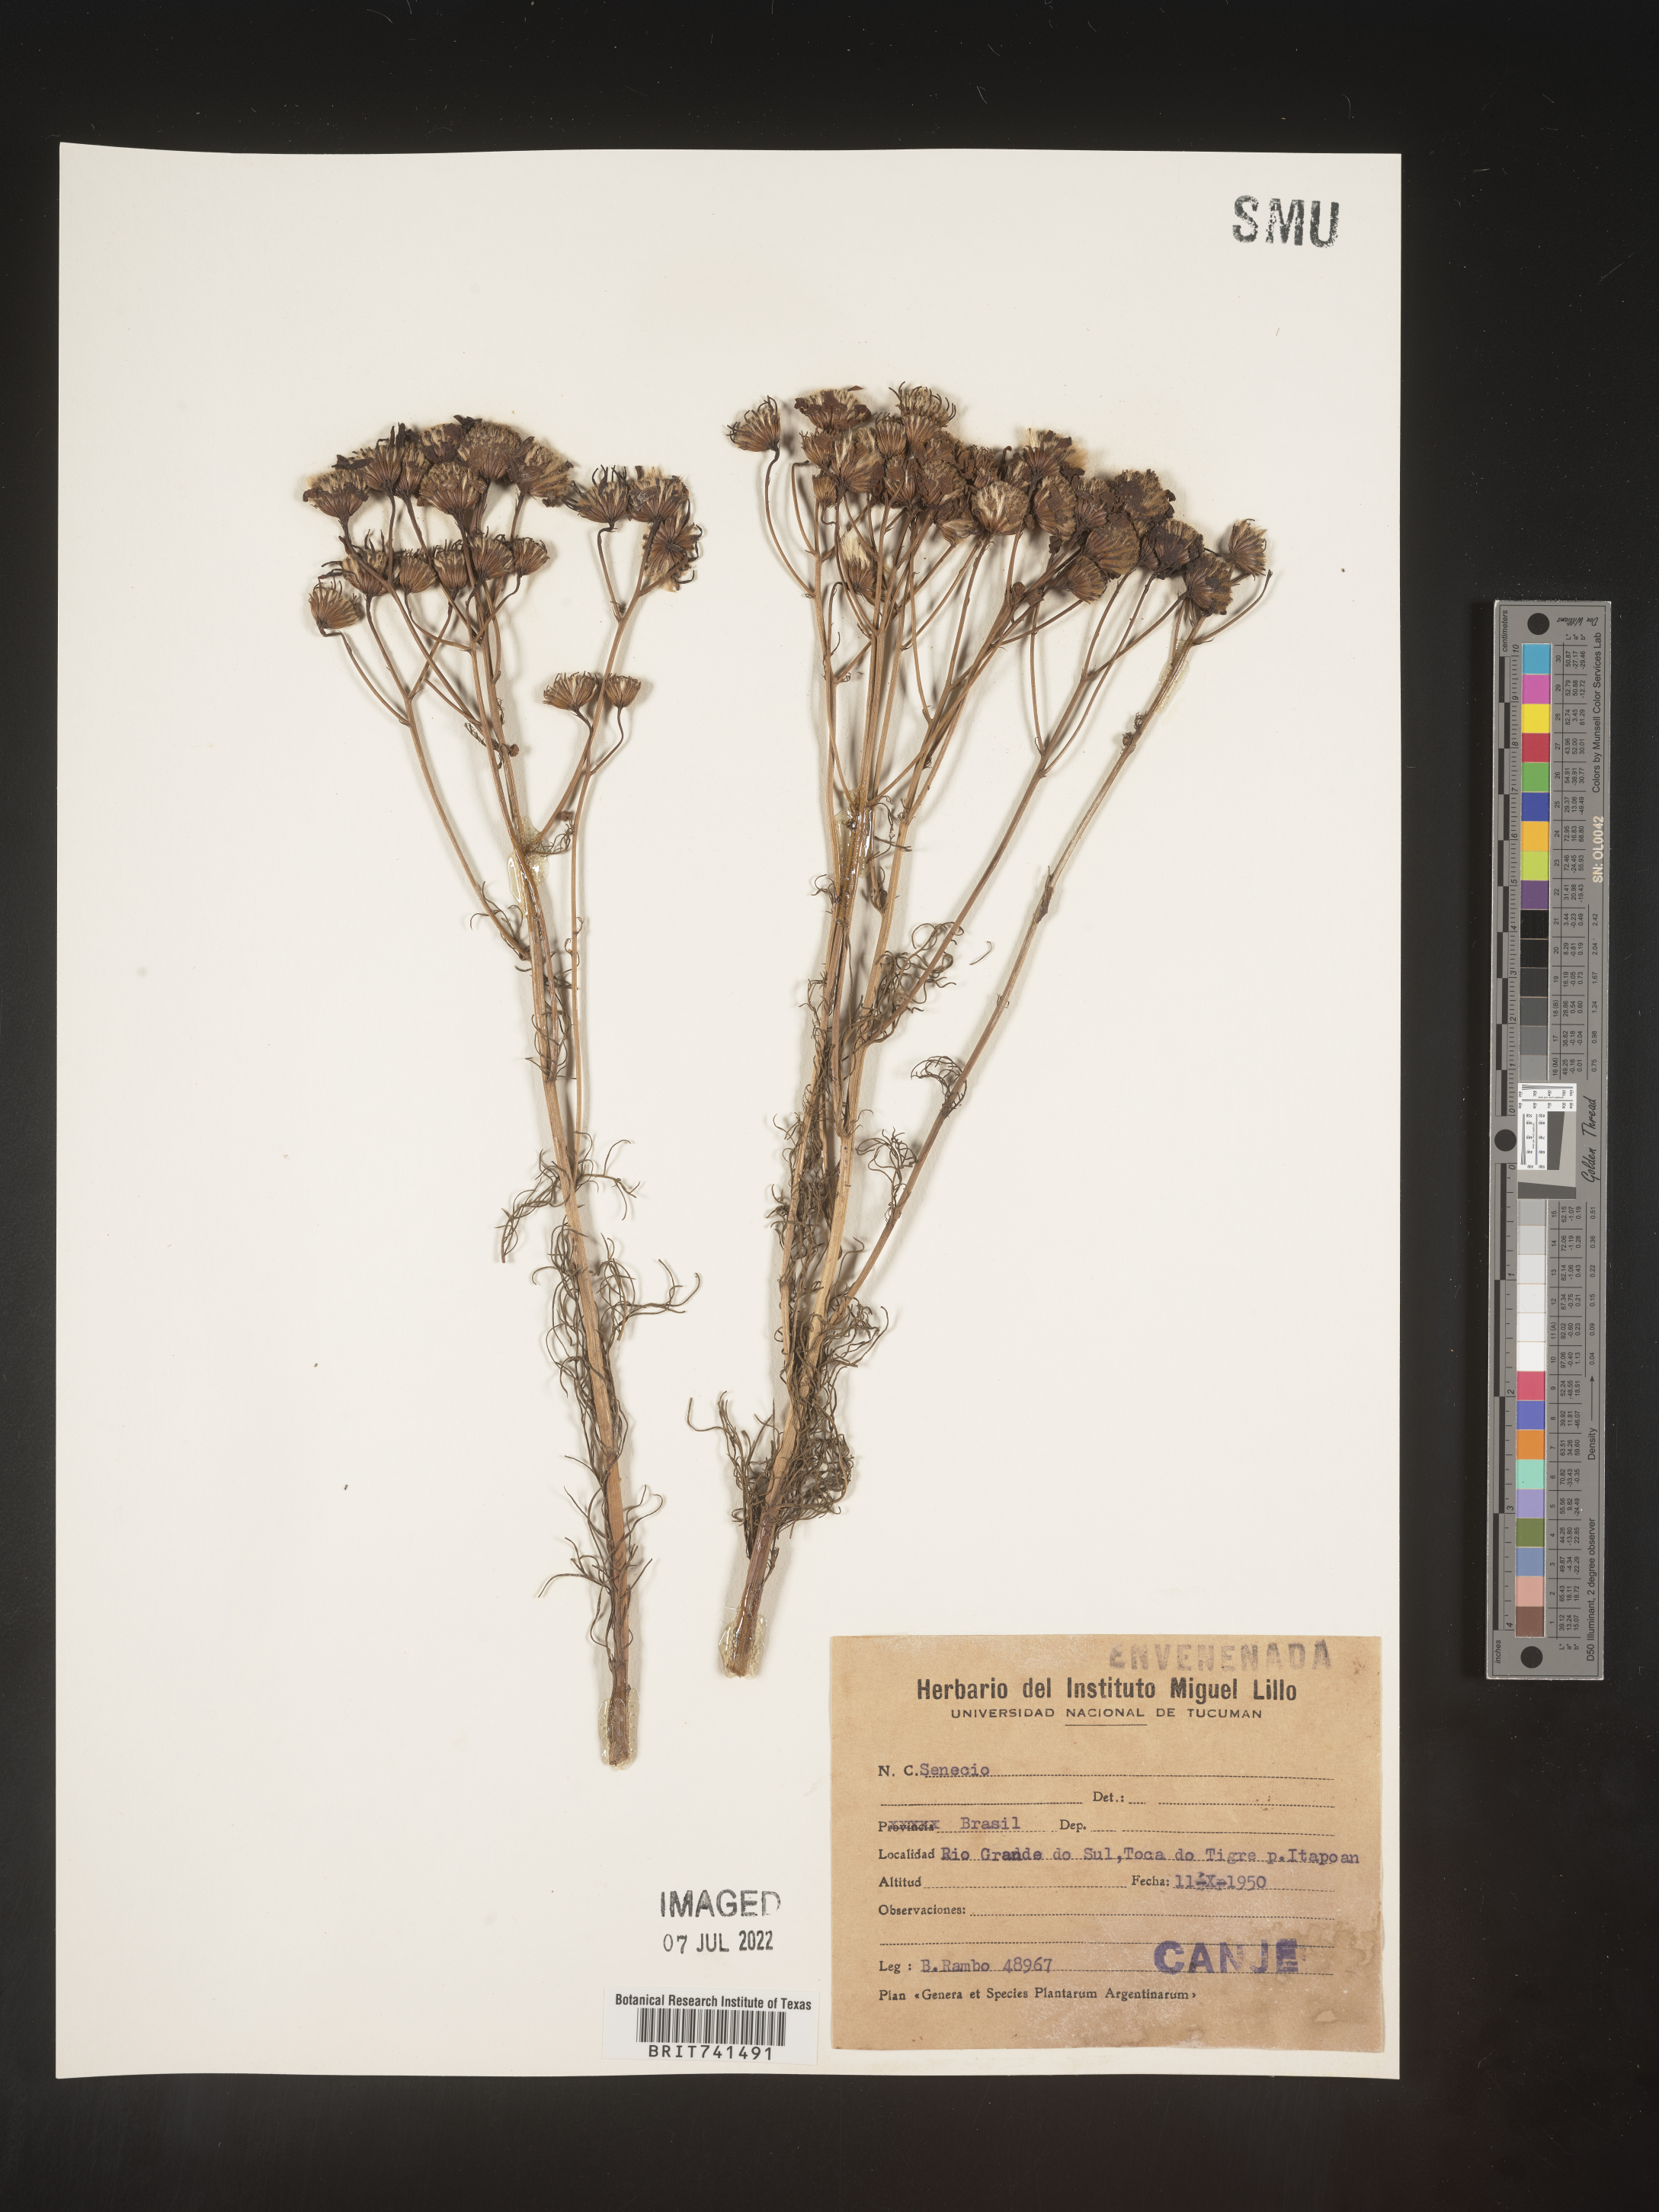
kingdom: Plantae
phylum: Tracheophyta
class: Magnoliopsida
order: Asterales
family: Asteraceae
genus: Senecio
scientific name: Senecio
